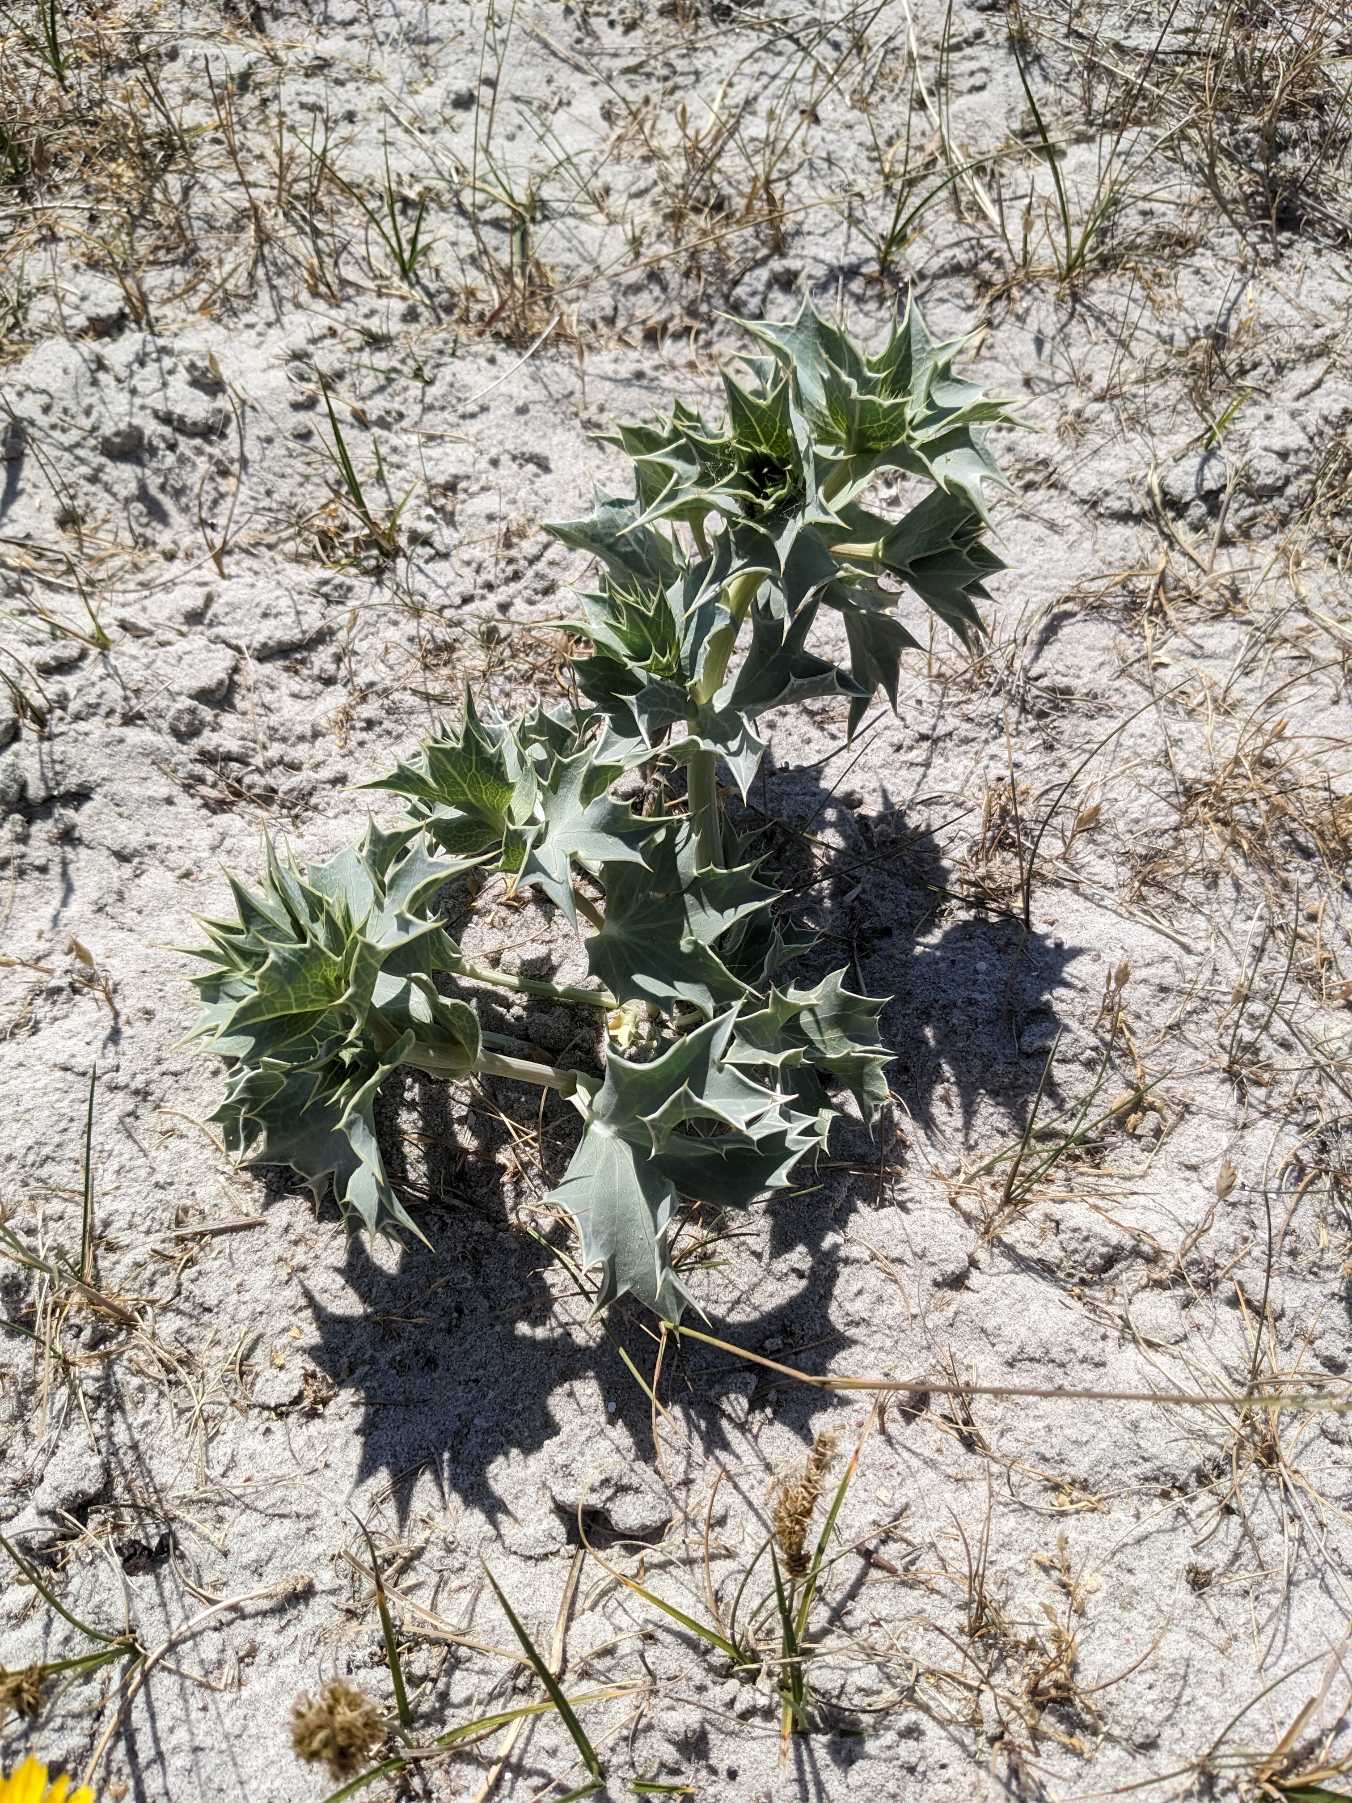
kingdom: Plantae
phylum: Tracheophyta
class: Magnoliopsida
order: Apiales
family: Apiaceae
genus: Eryngium
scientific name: Eryngium maritimum
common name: Strand-mandstro
